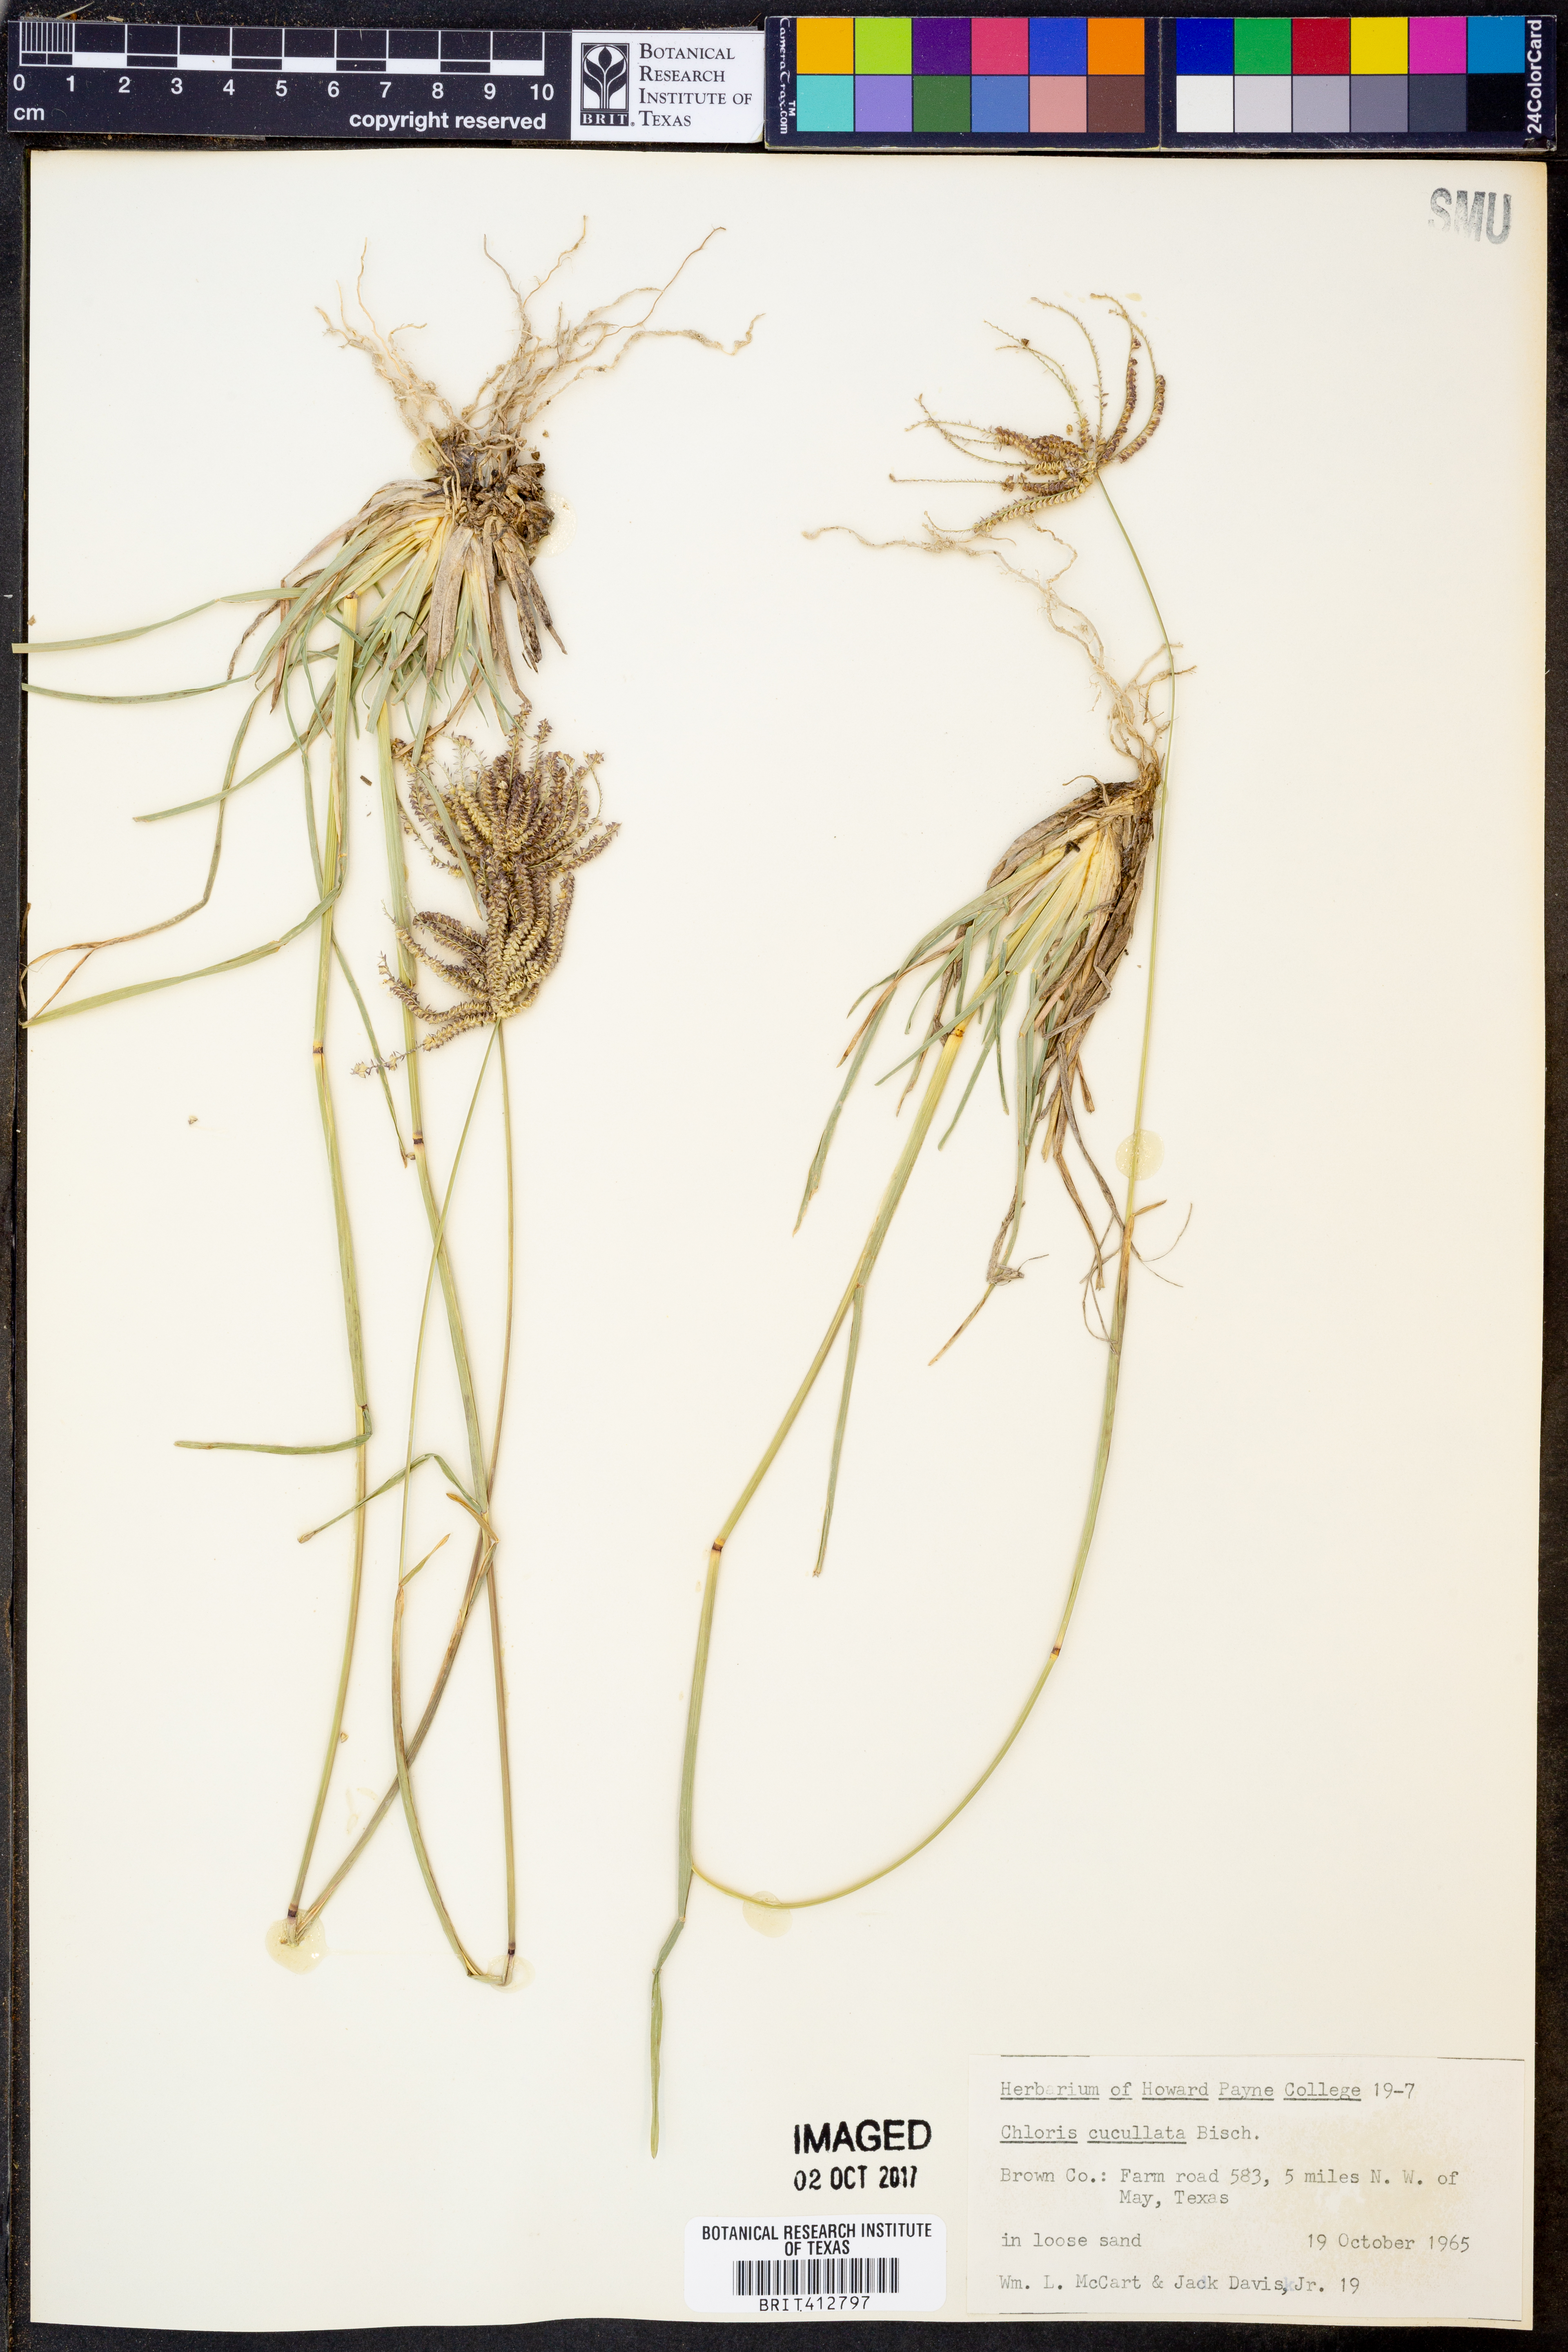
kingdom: Plantae
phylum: Tracheophyta
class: Liliopsida
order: Poales
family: Poaceae
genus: Chloris
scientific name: Chloris cucullata
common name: Hooded windmill grass
